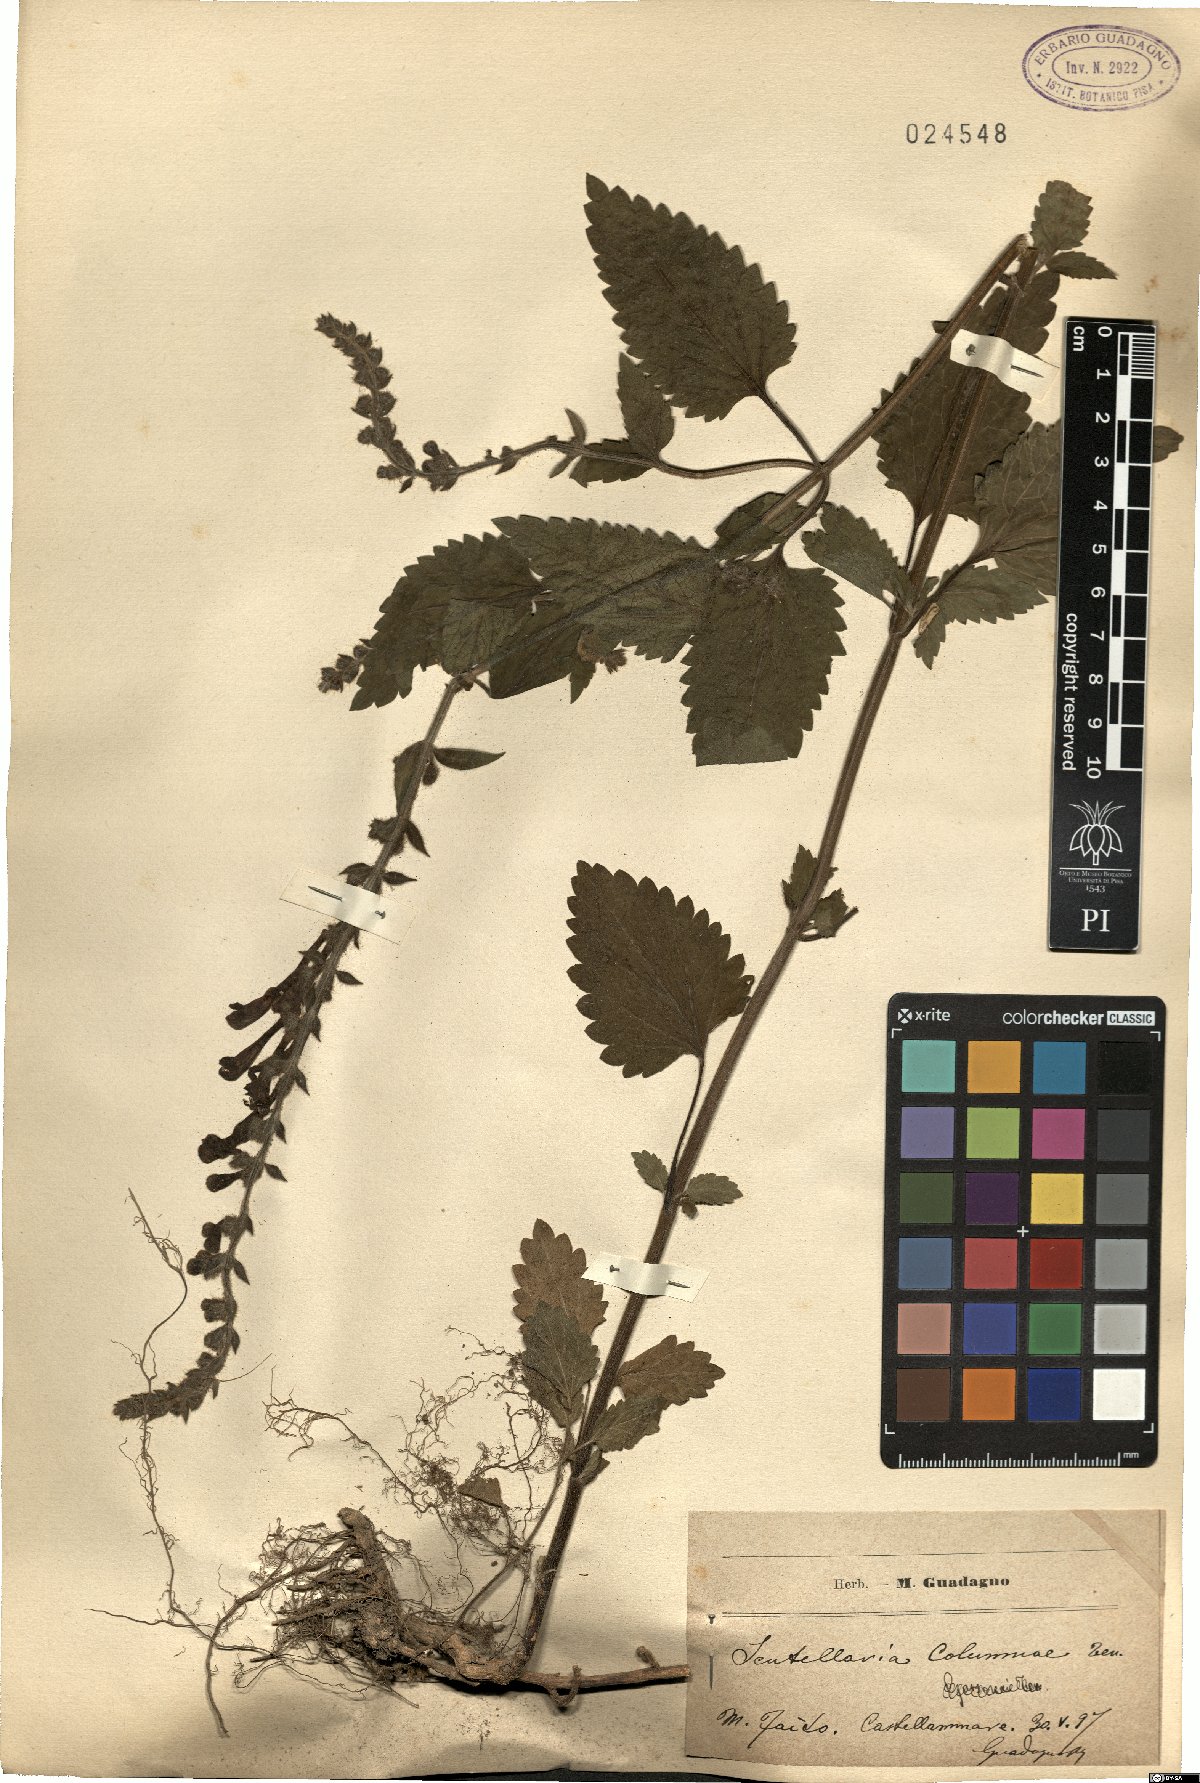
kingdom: Plantae
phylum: Tracheophyta
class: Magnoliopsida
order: Lamiales
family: Lamiaceae
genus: Scutellaria
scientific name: Scutellaria columnae
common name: Large skullcap
